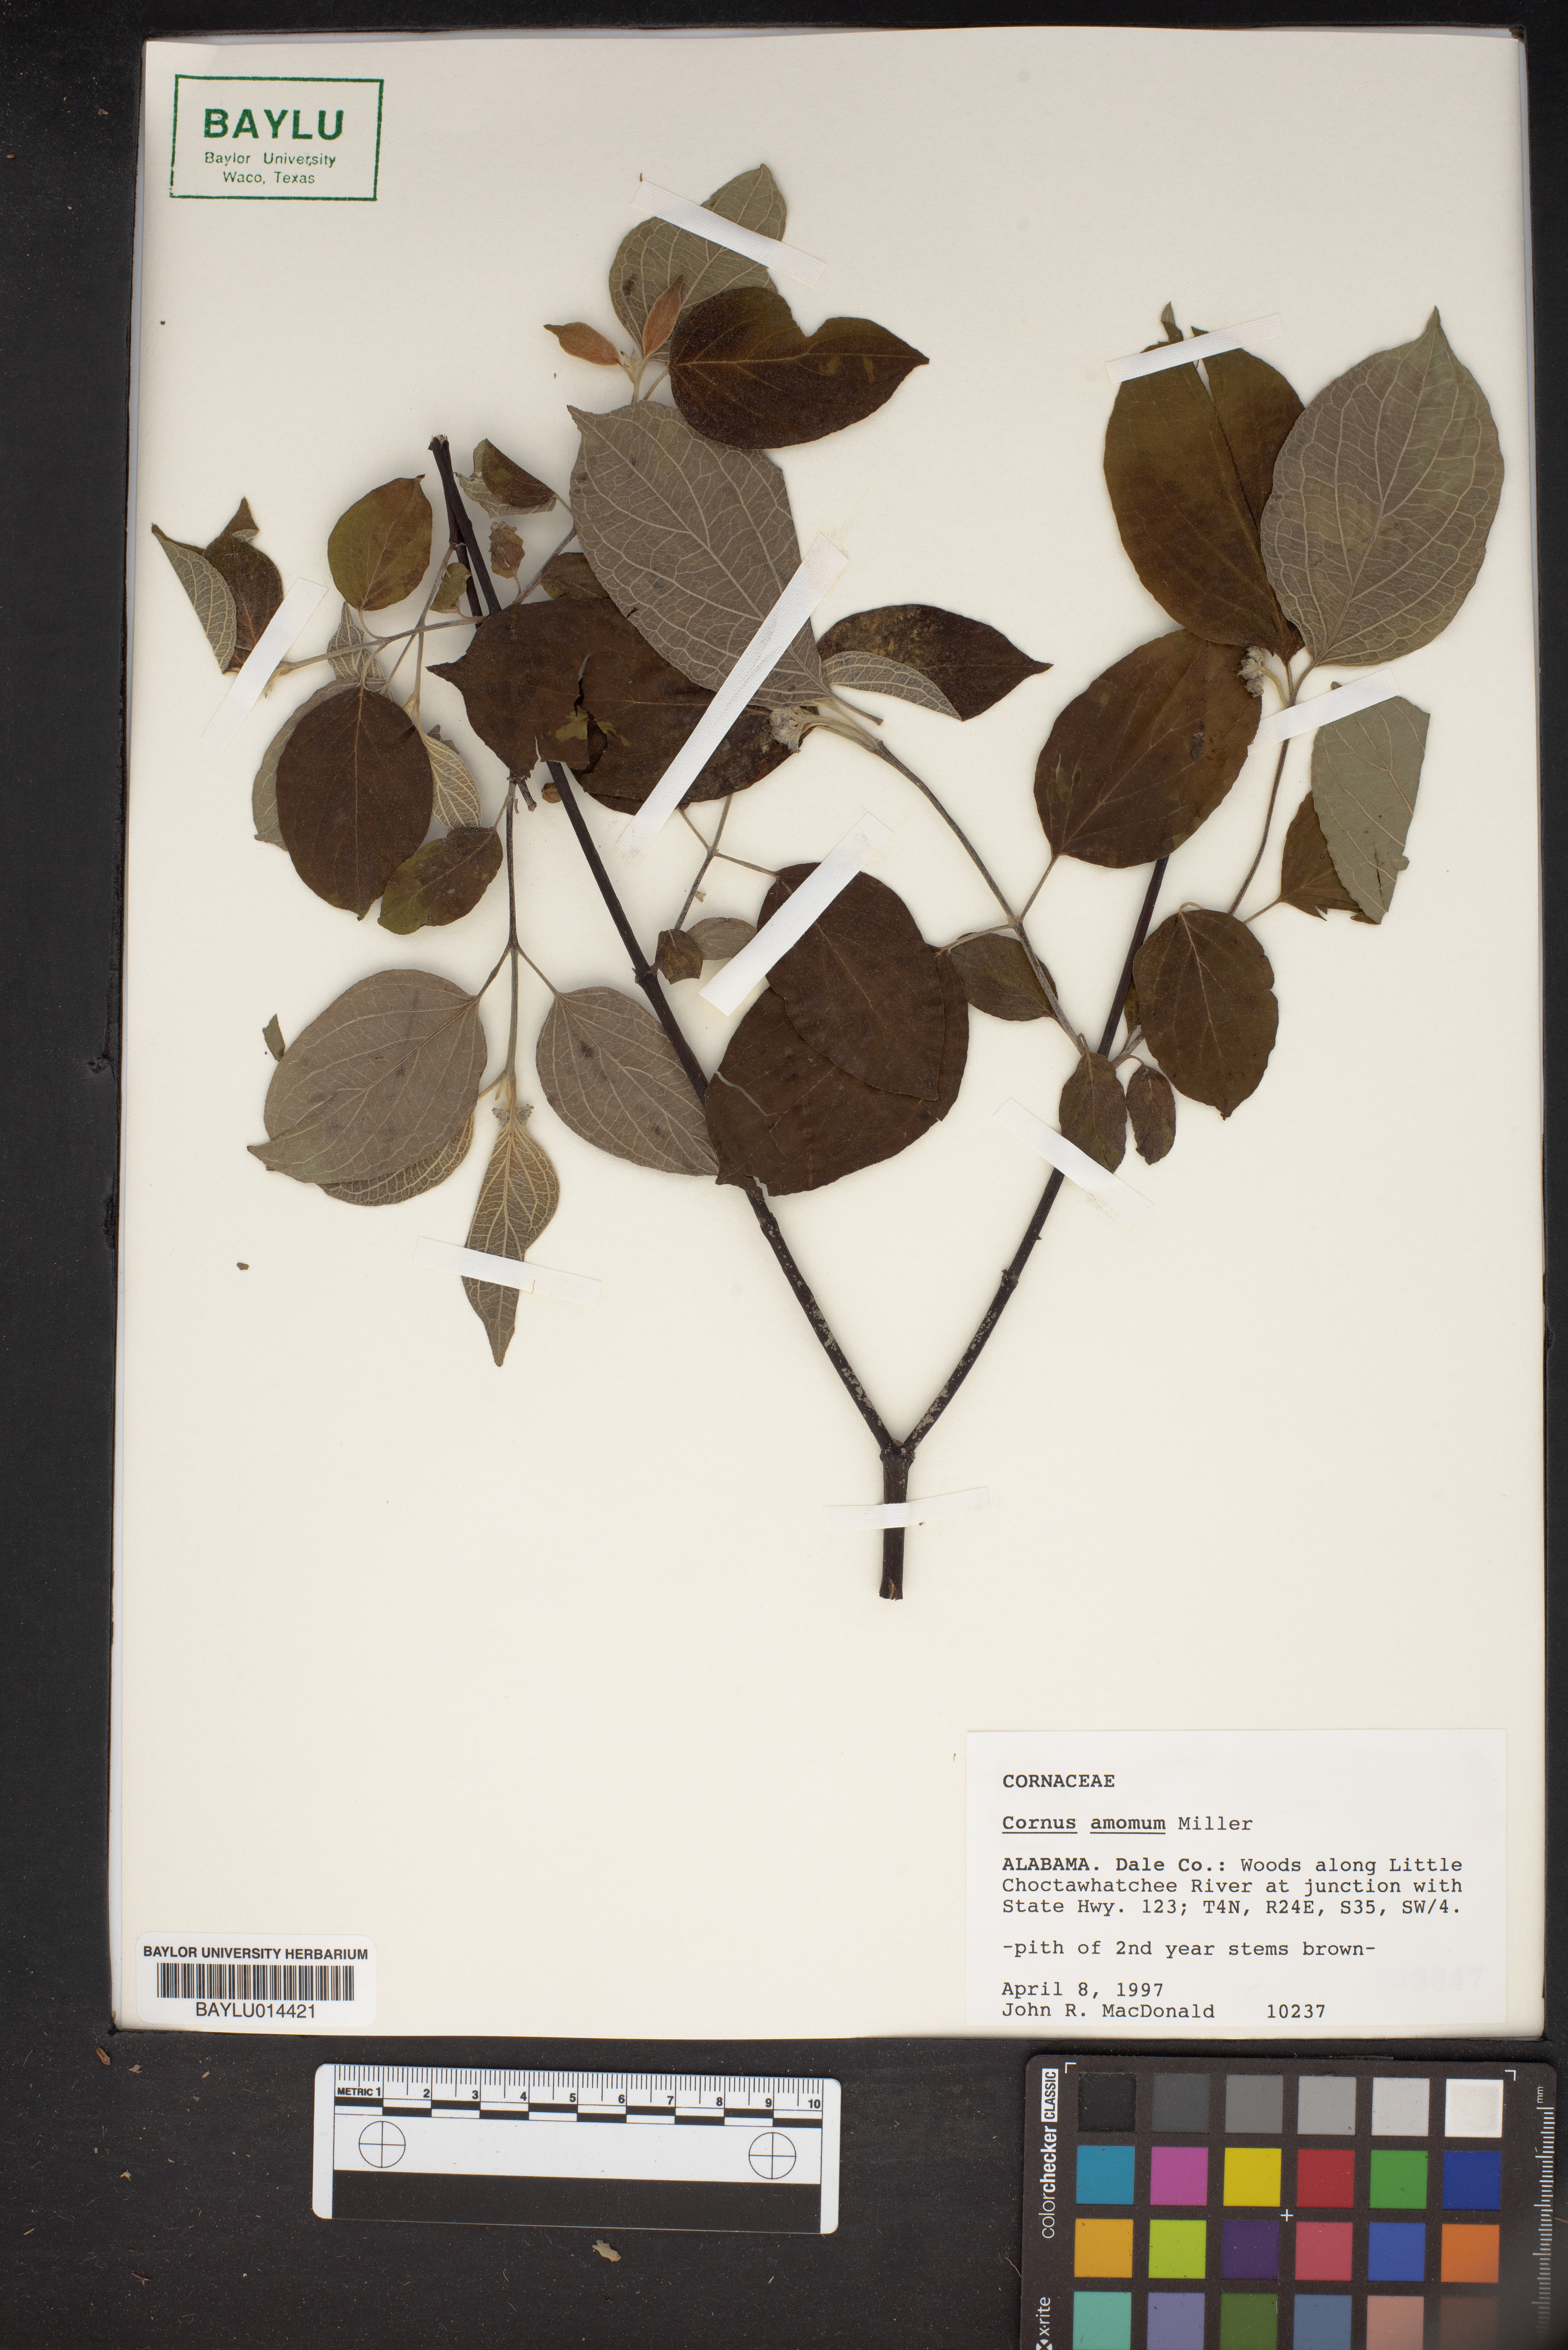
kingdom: Plantae
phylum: Tracheophyta
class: Magnoliopsida
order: Cornales
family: Cornaceae
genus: Cornus
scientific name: Cornus amomum
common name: Silky dogwood
